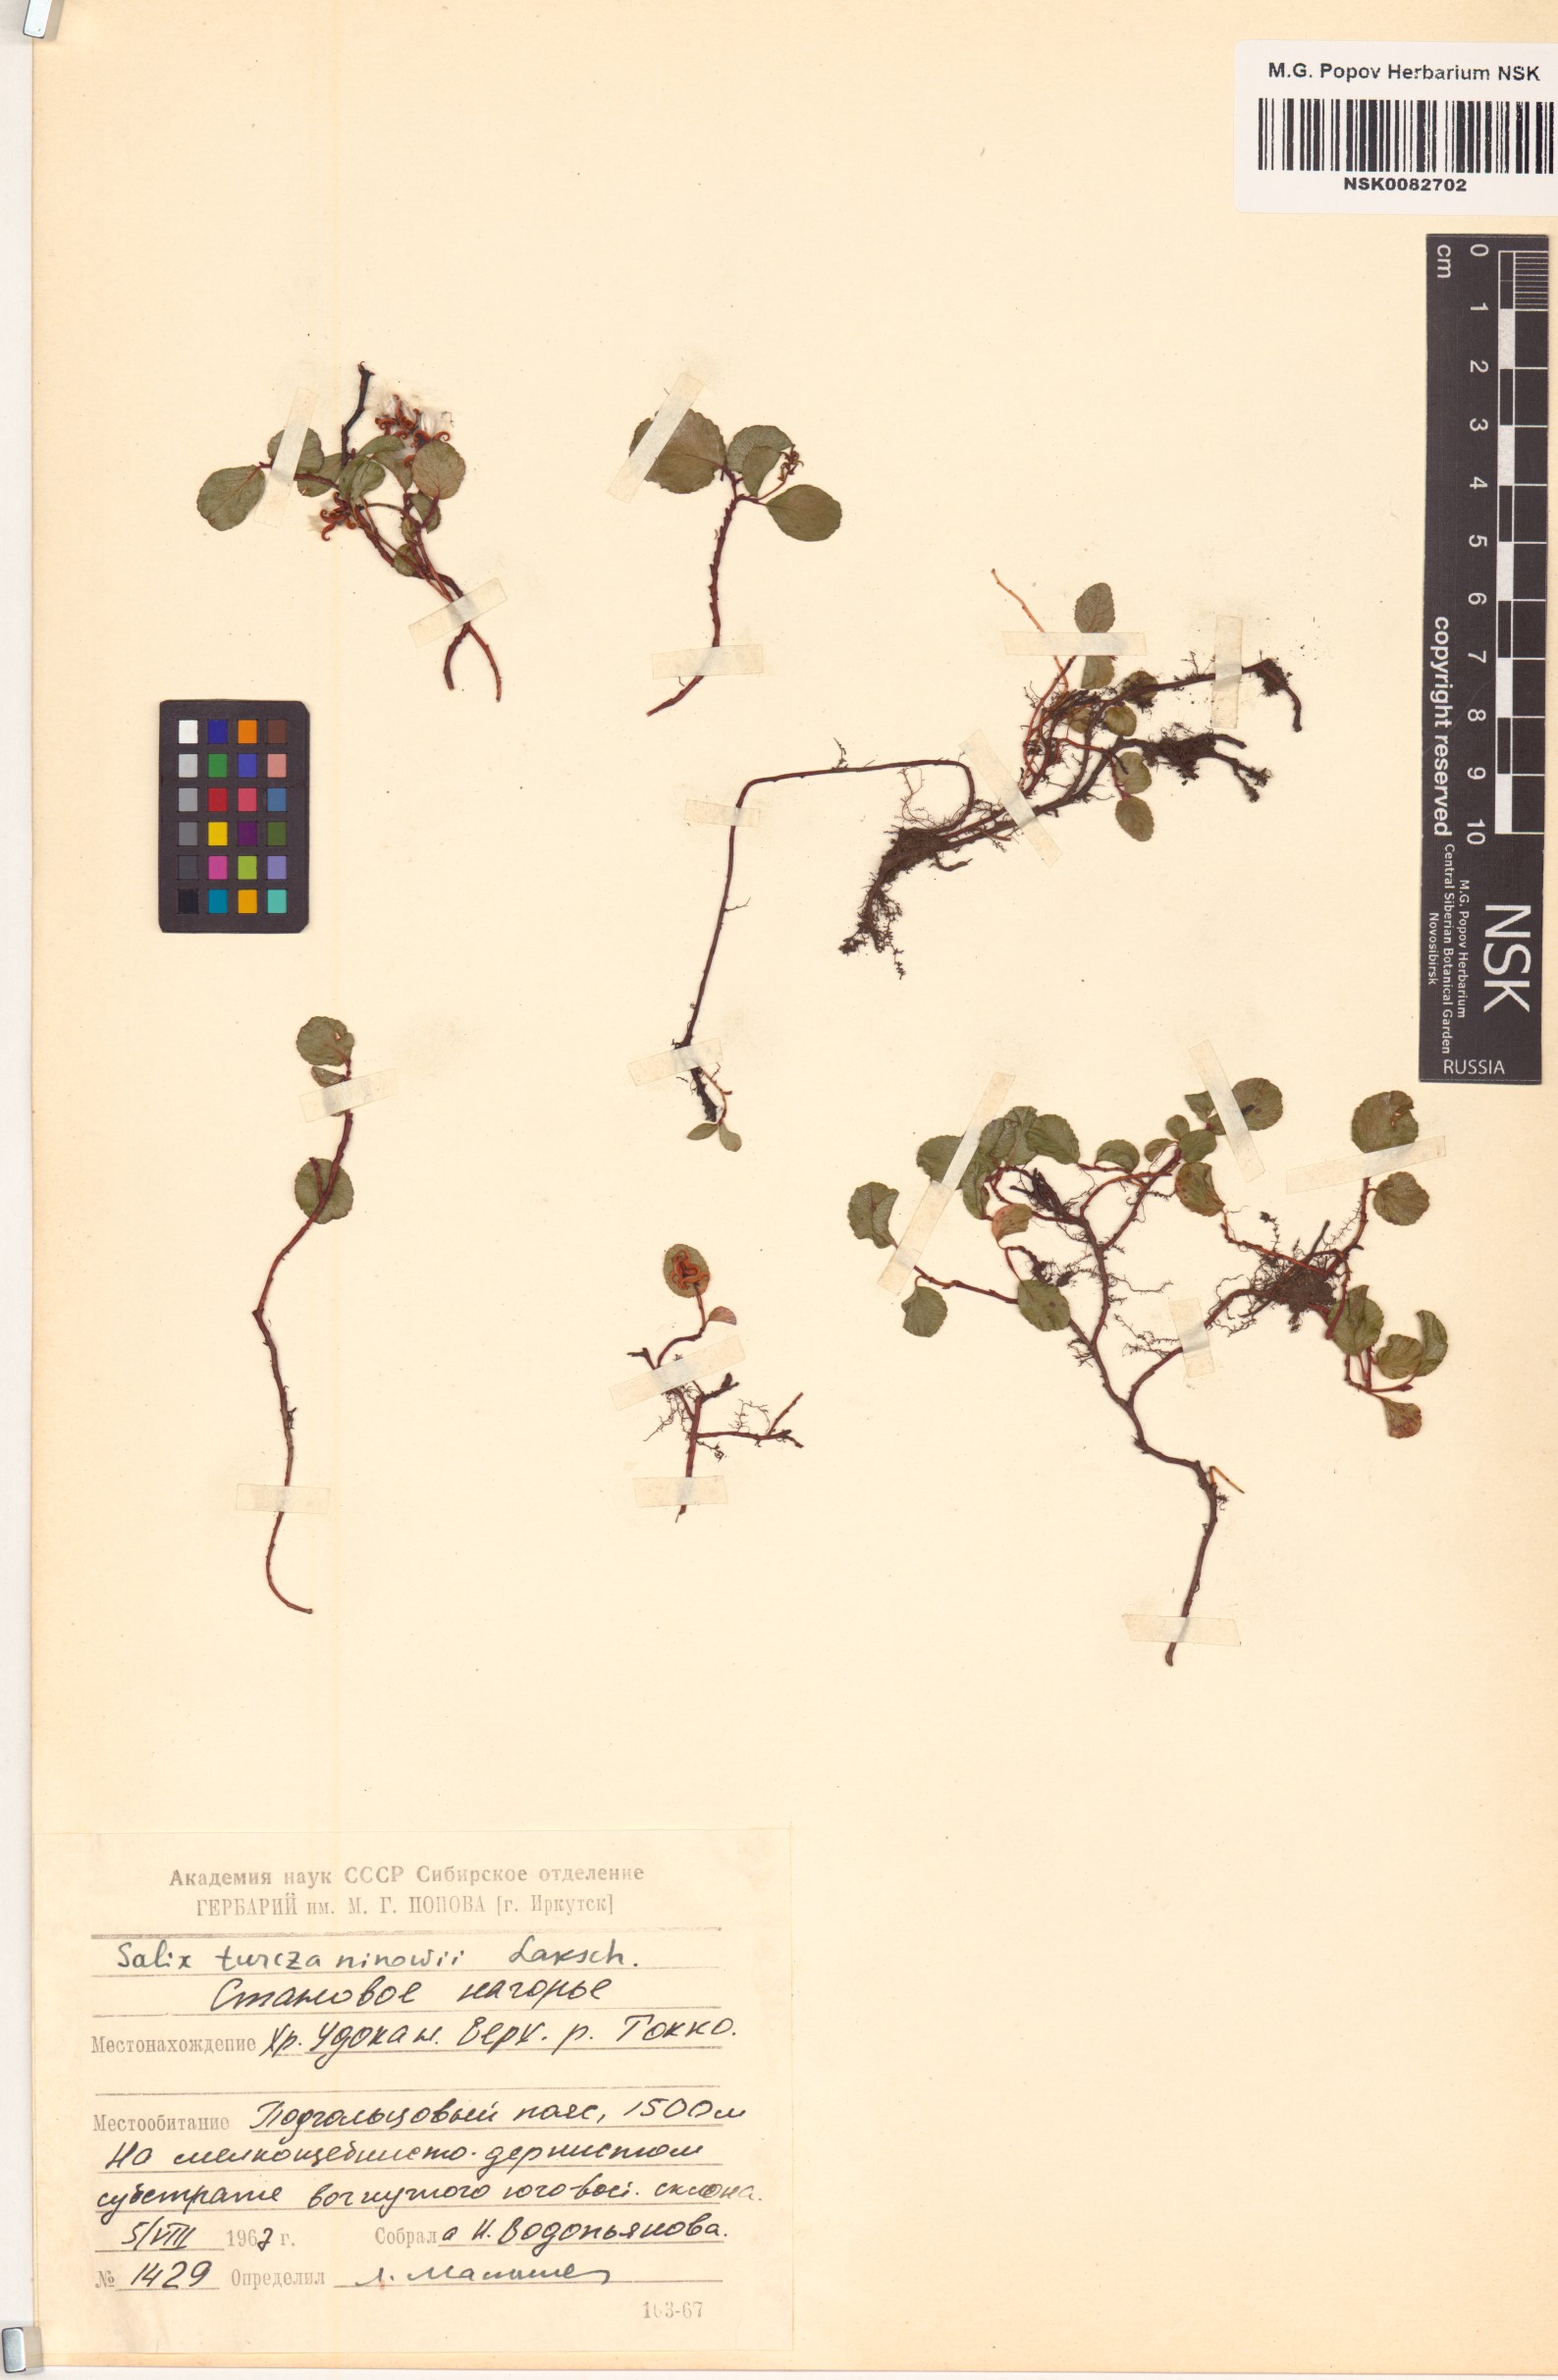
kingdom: Plantae
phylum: Tracheophyta
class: Magnoliopsida
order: Malpighiales
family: Salicaceae
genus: Salix
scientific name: Salix turczaninowii
